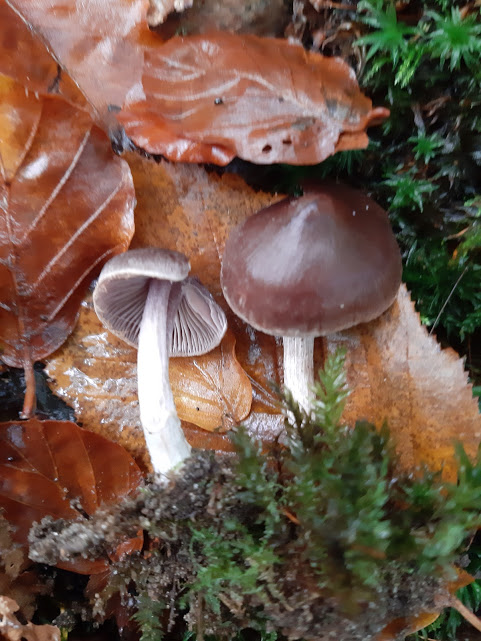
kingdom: Fungi
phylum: Basidiomycota
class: Agaricomycetes
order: Agaricales
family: Cortinariaceae
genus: Cortinarius
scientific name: Cortinarius
